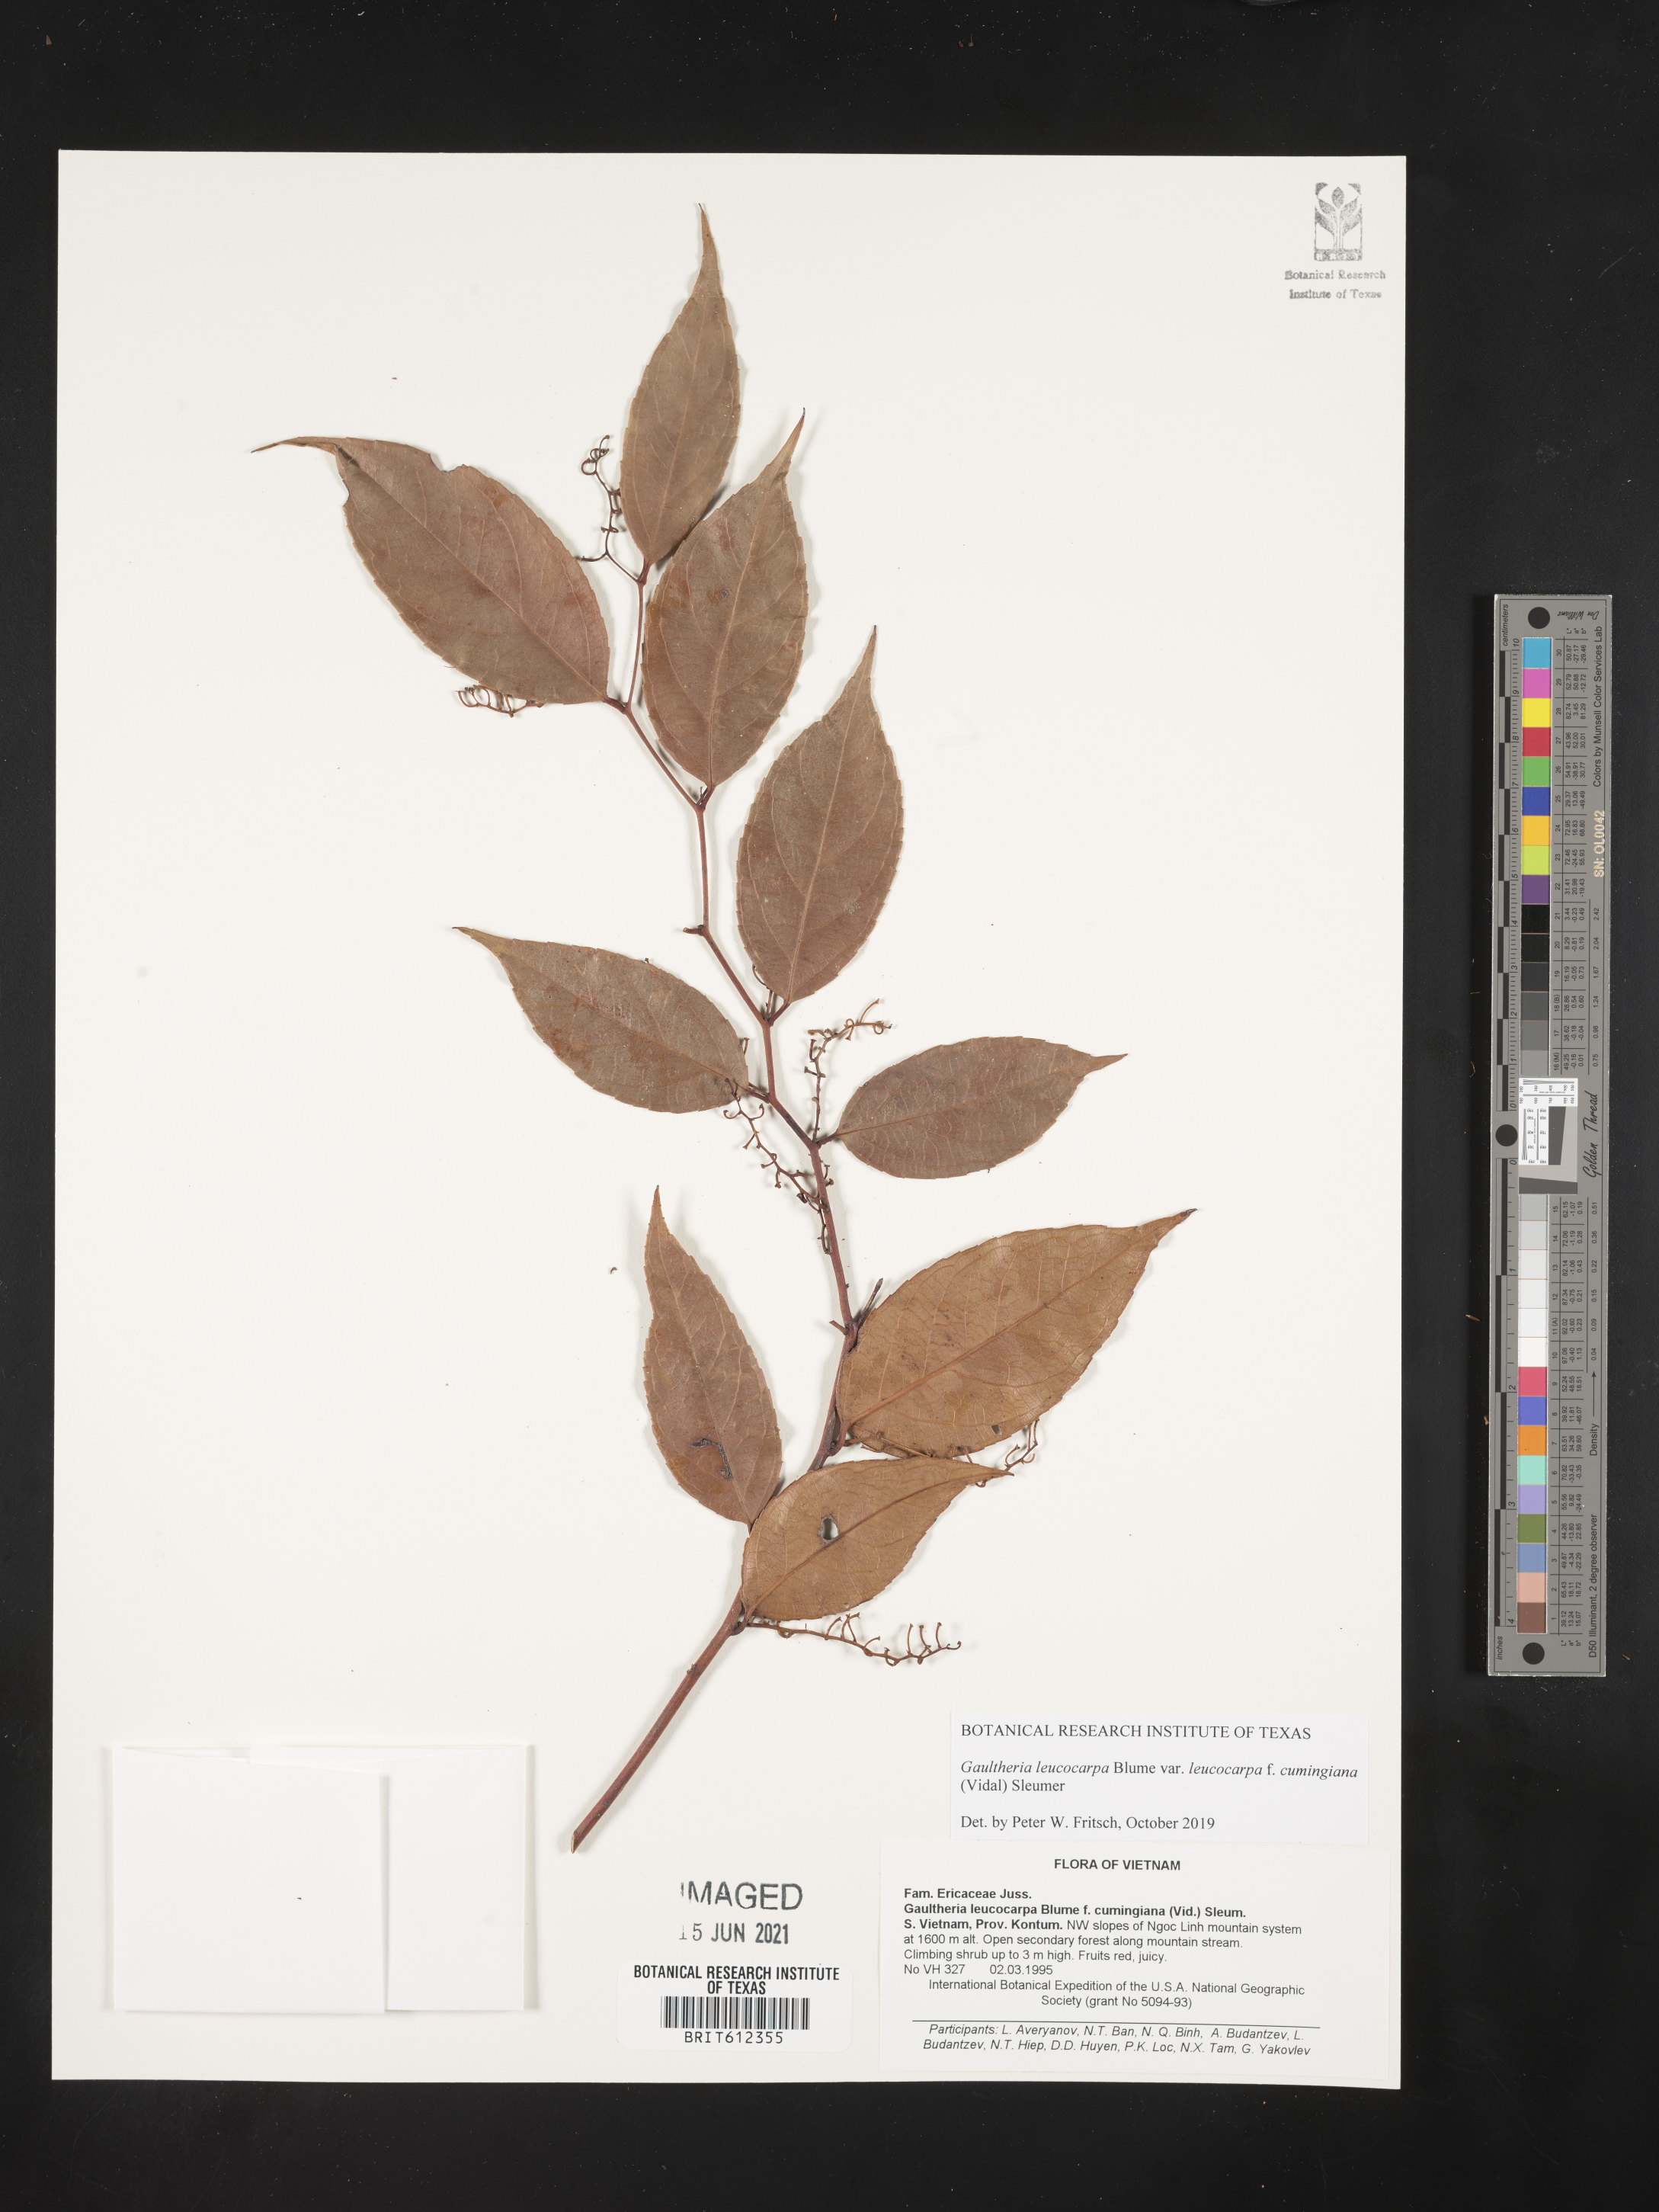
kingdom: Plantae
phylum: Tracheophyta
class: Magnoliopsida
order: Ericales
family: Ericaceae
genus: Gaultheria
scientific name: Gaultheria leucocarpa
